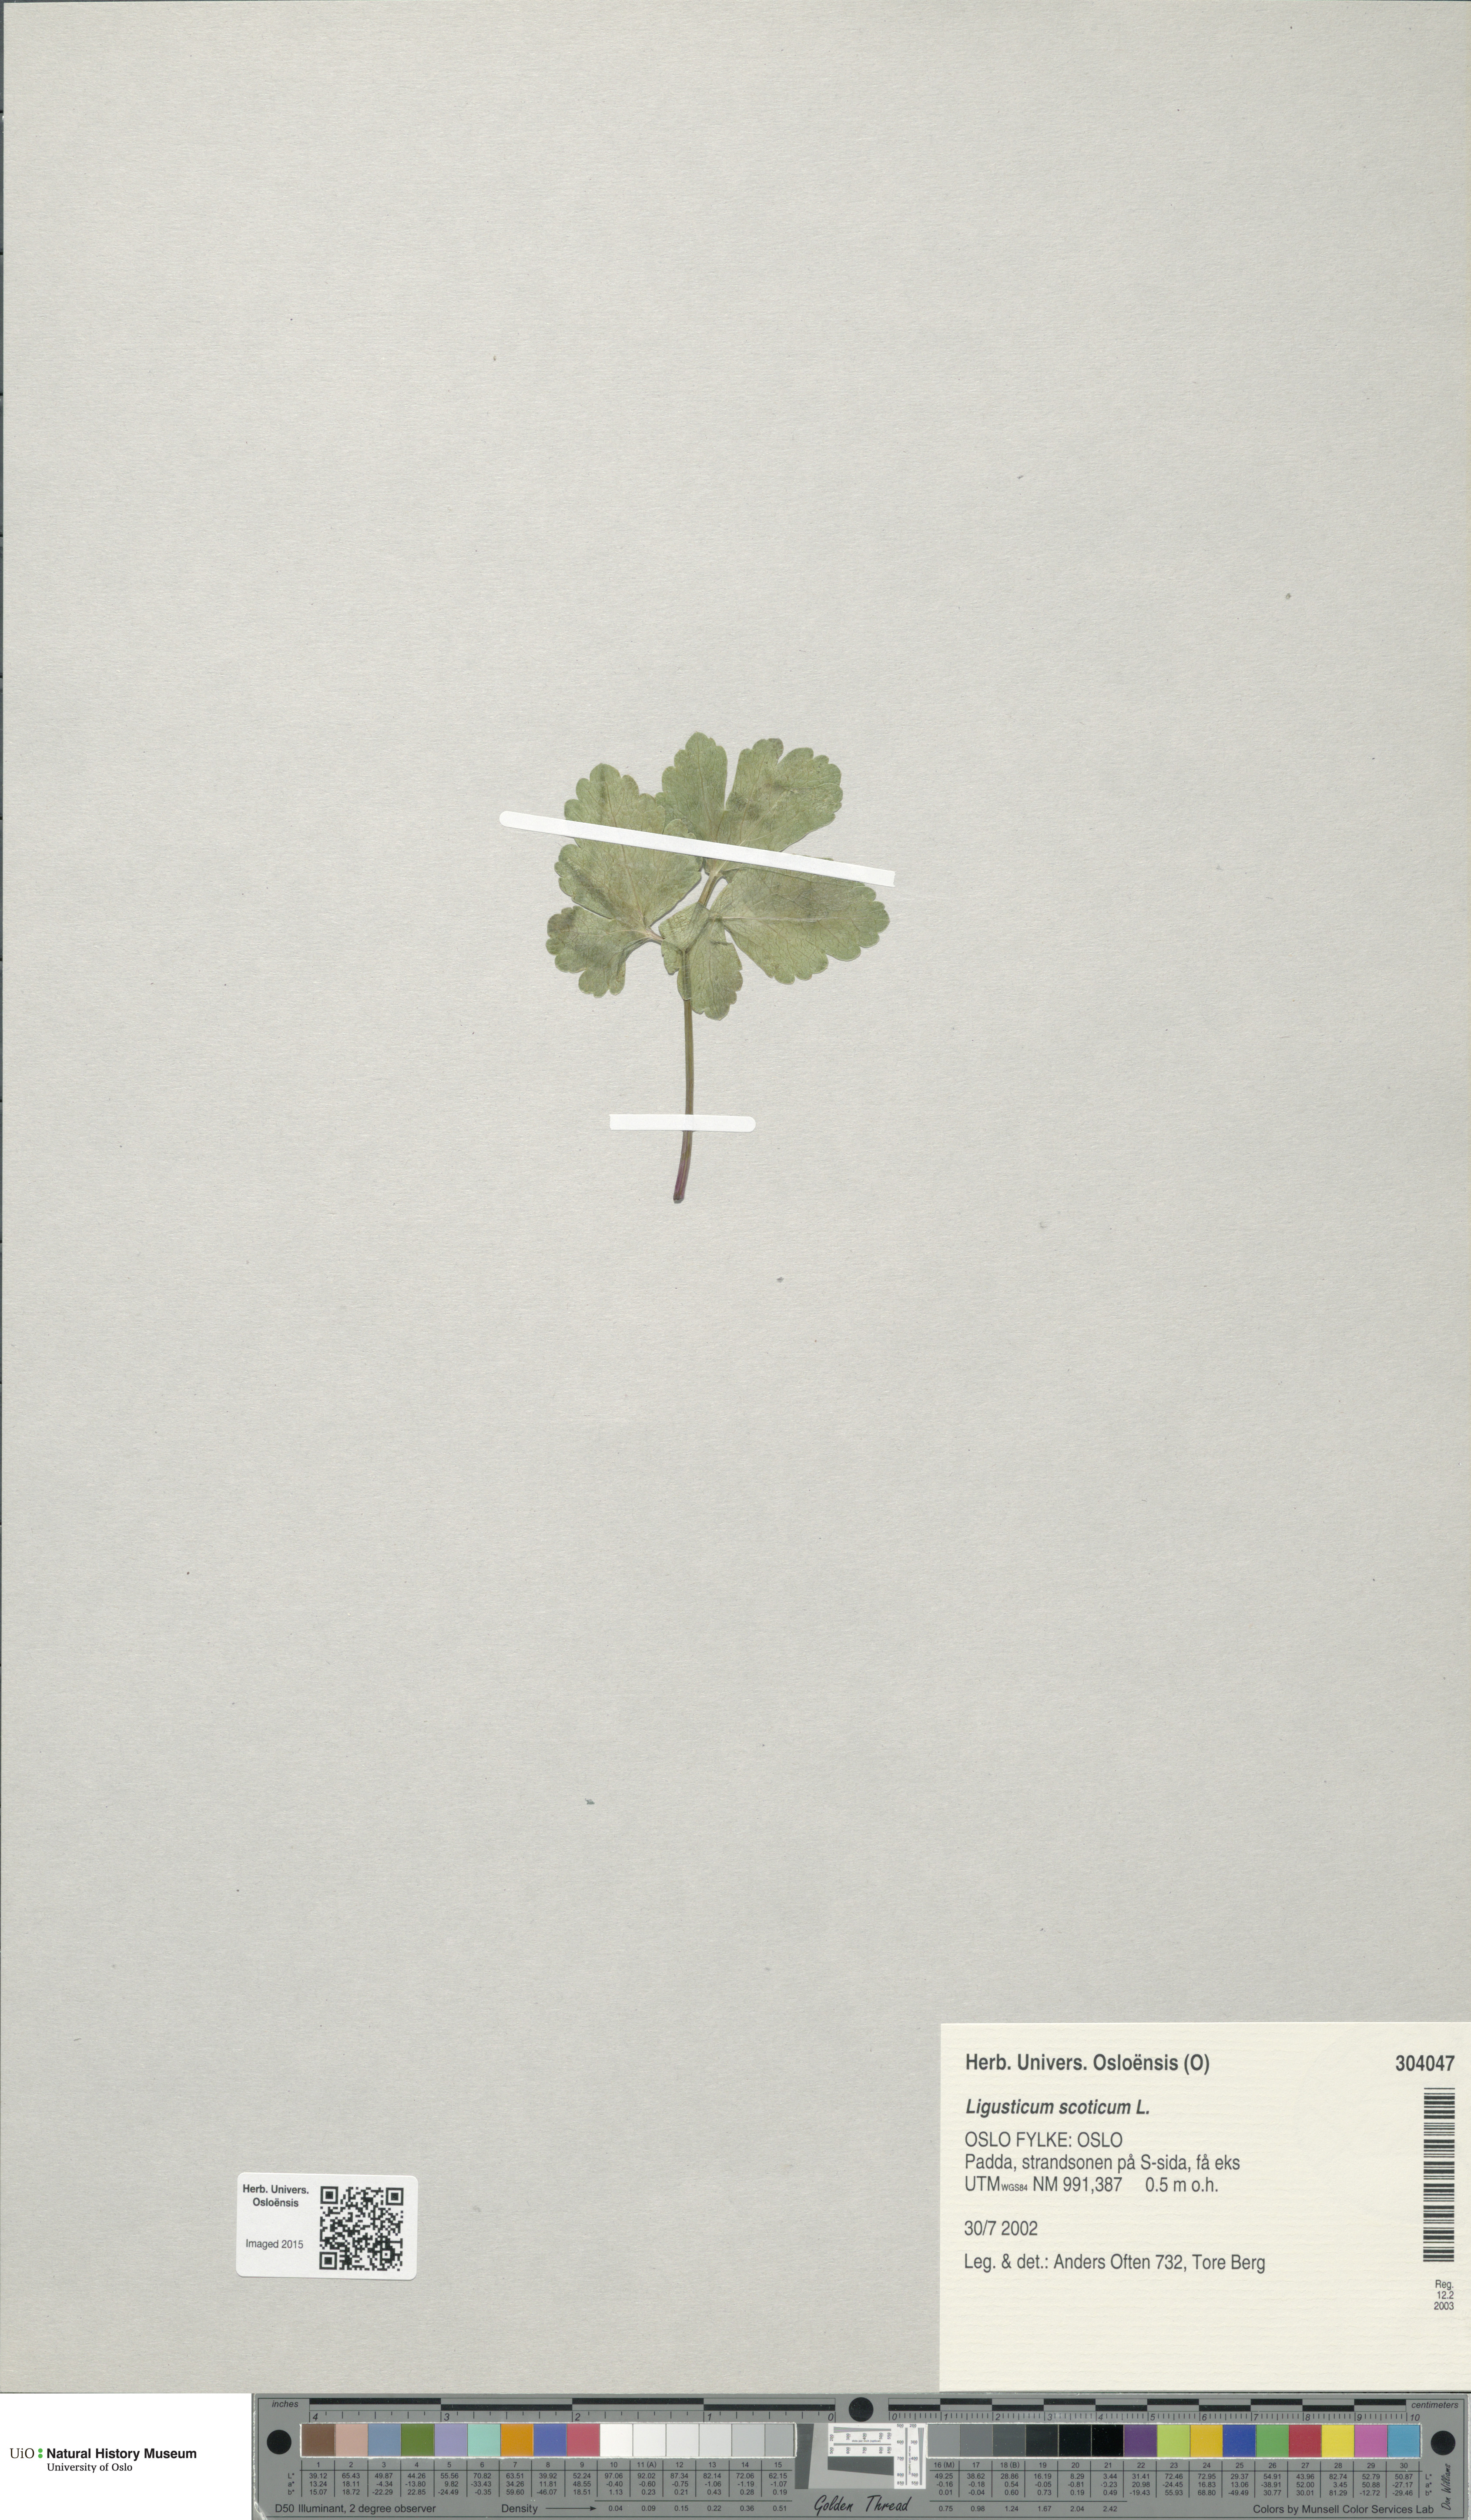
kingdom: Plantae
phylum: Tracheophyta
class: Magnoliopsida
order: Apiales
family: Apiaceae
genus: Ligusticum
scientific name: Ligusticum scothicum
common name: Beach lovage
